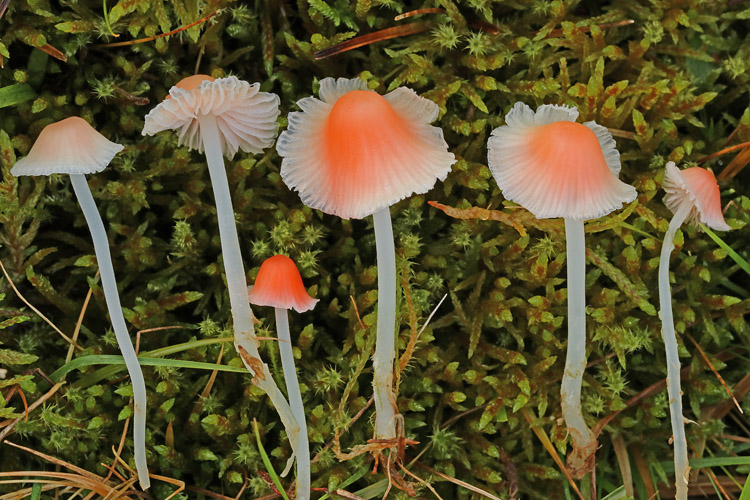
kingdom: Fungi
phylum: Basidiomycota
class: Agaricomycetes
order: Agaricales
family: Mycenaceae
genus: Atheniella
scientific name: Atheniella adonis
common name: rønnerød huesvamp
